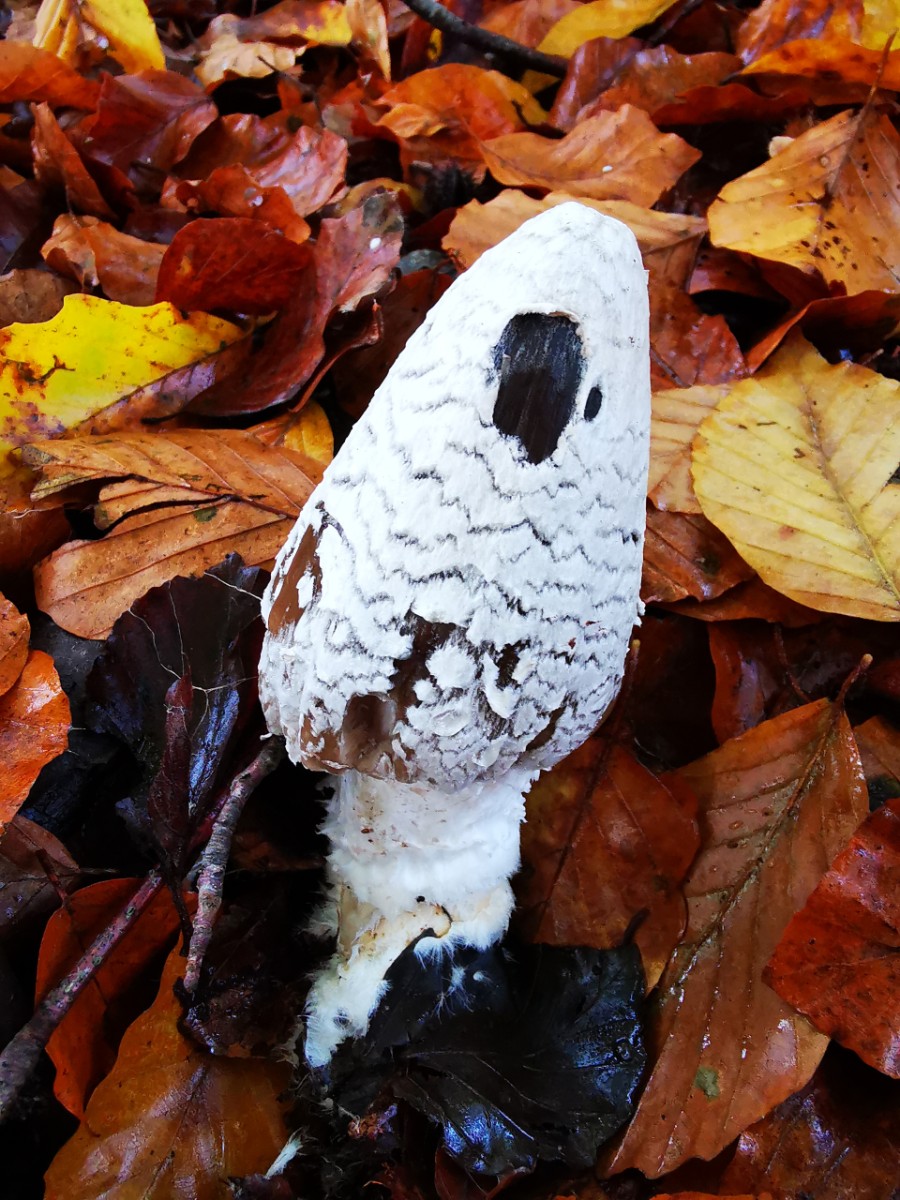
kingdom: Fungi
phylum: Basidiomycota
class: Agaricomycetes
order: Agaricales
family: Psathyrellaceae
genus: Coprinopsis
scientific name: Coprinopsis picacea
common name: skade-blækhat
